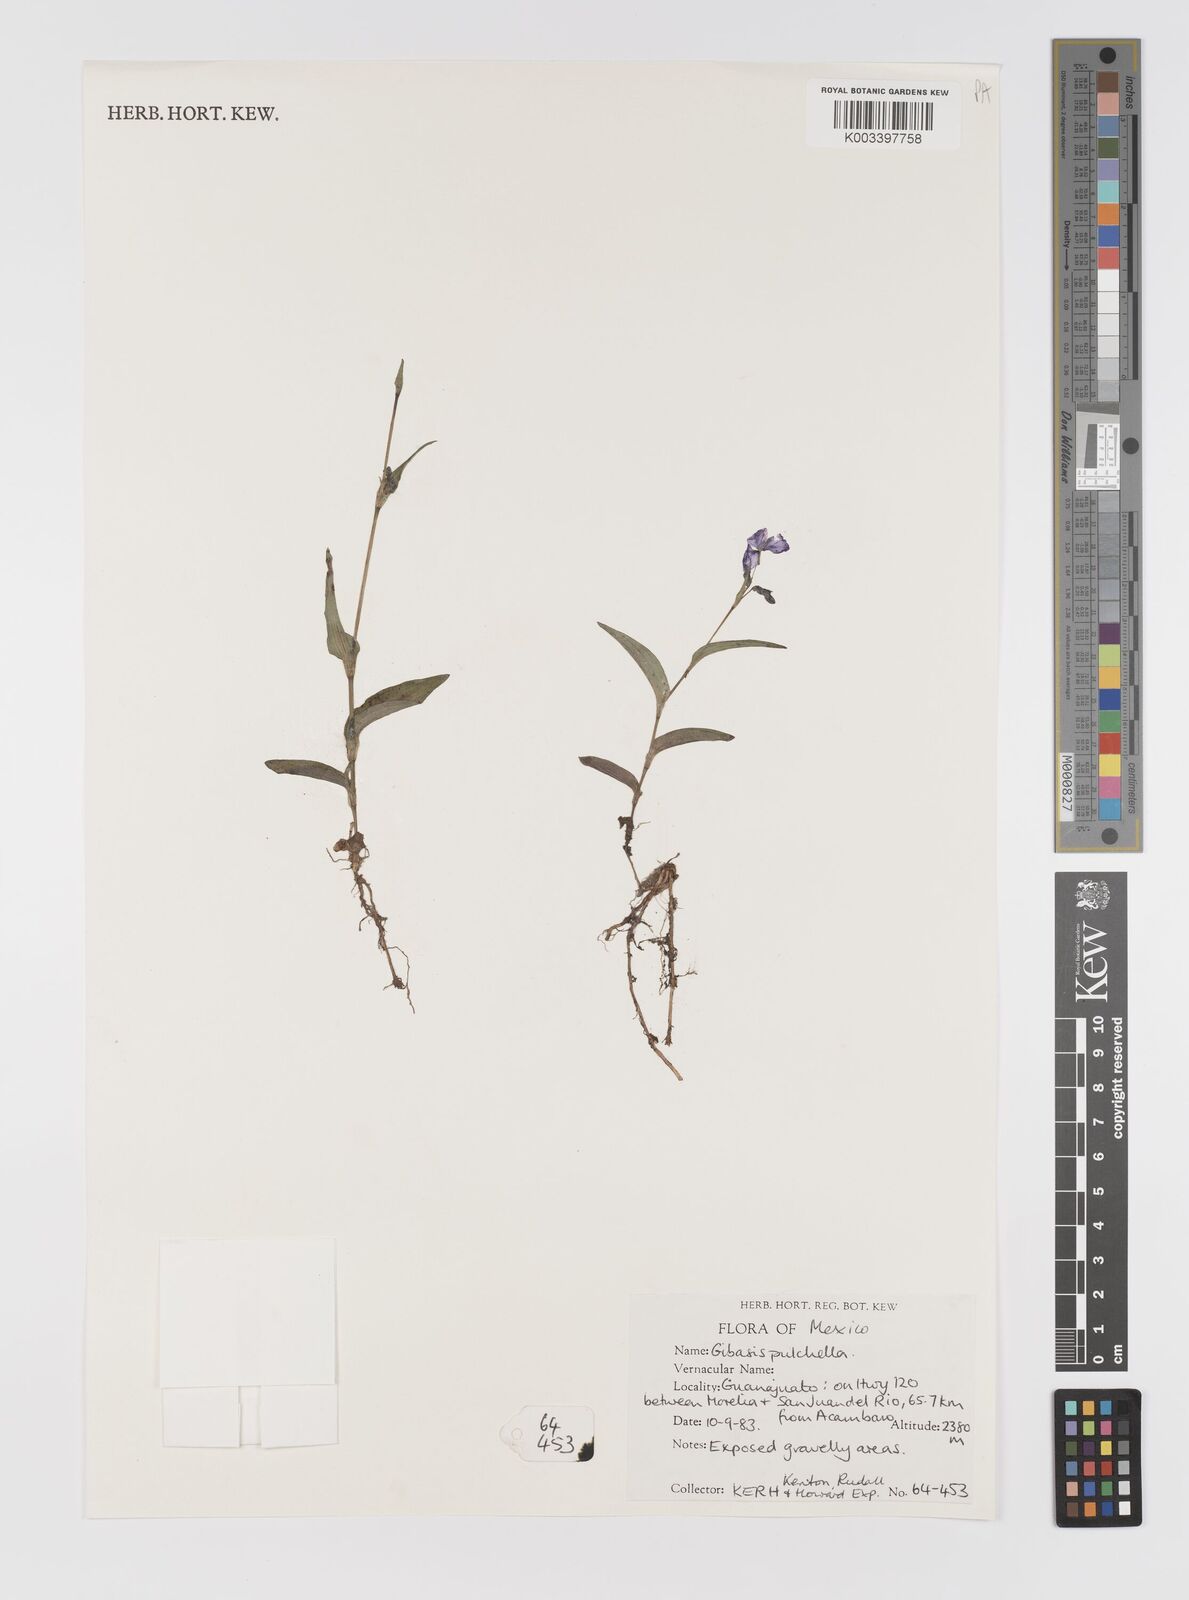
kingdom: Plantae
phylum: Tracheophyta
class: Liliopsida
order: Commelinales
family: Commelinaceae
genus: Gibasis
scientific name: Gibasis pulchella
